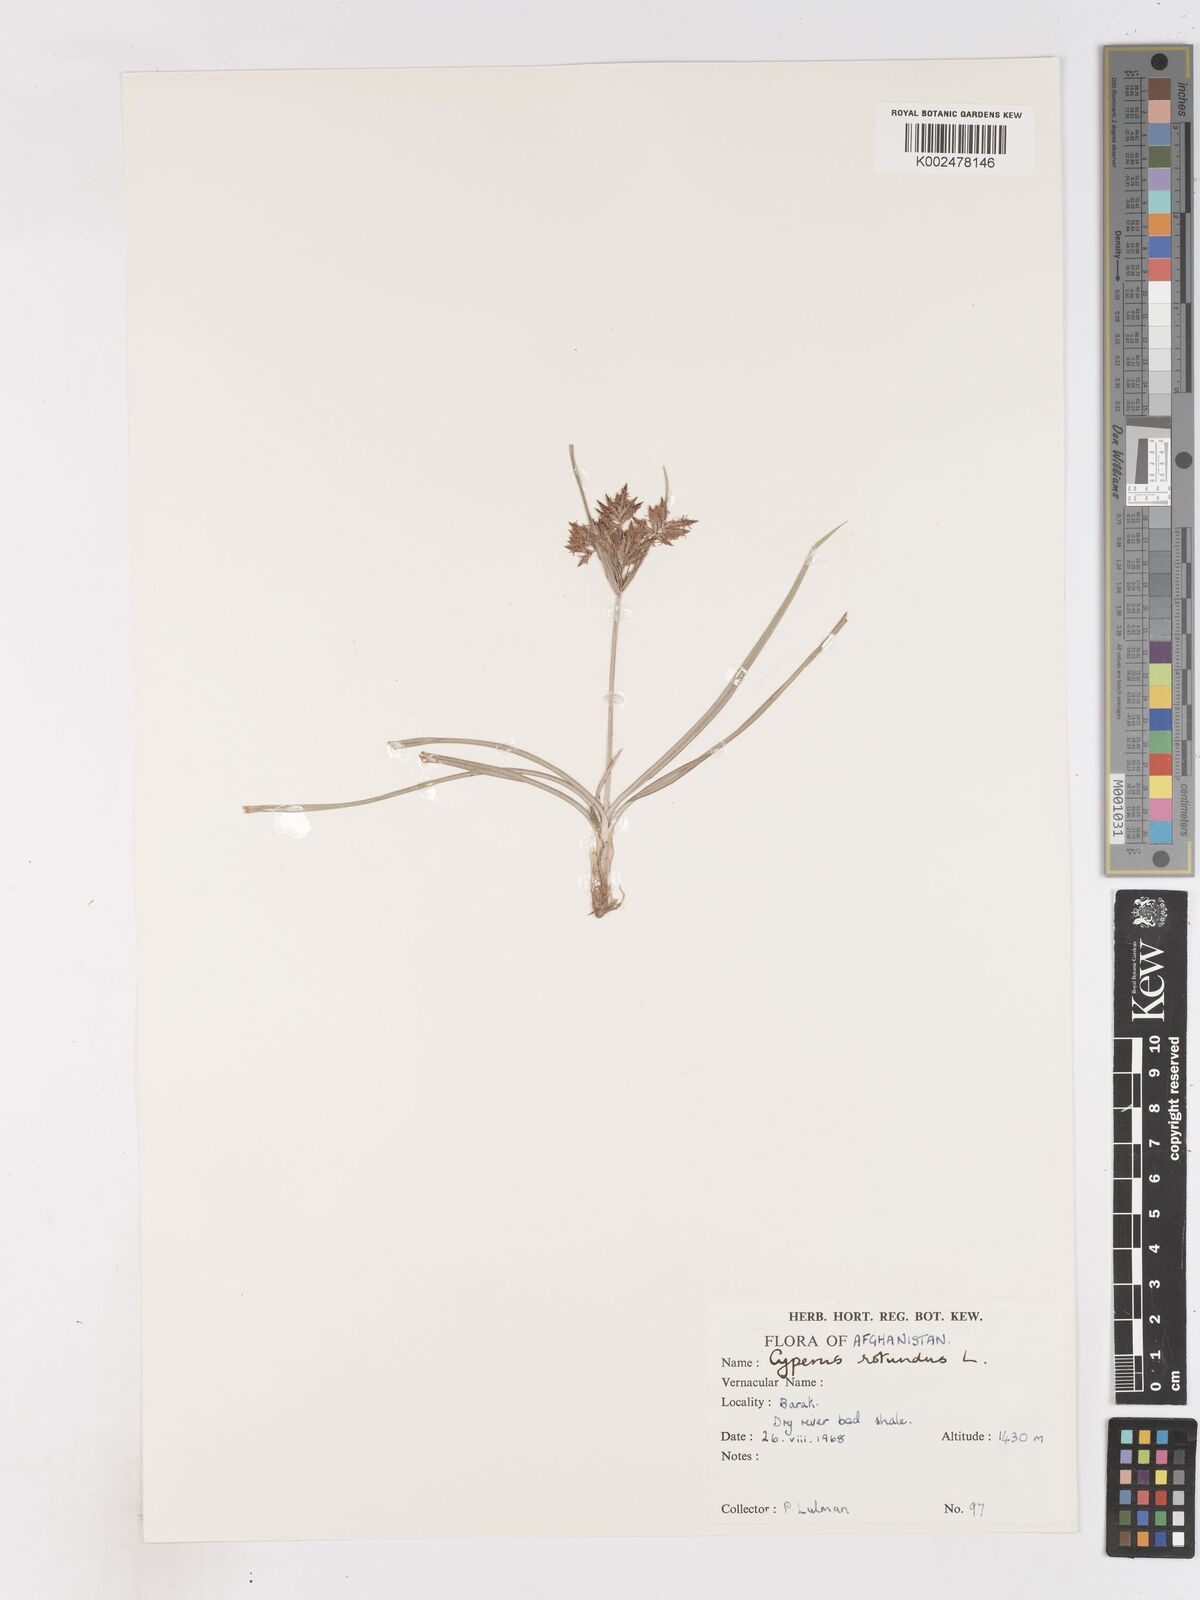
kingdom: Plantae
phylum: Tracheophyta
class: Liliopsida
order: Poales
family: Cyperaceae
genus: Cyperus
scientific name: Cyperus rotundus
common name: Nutgrass
